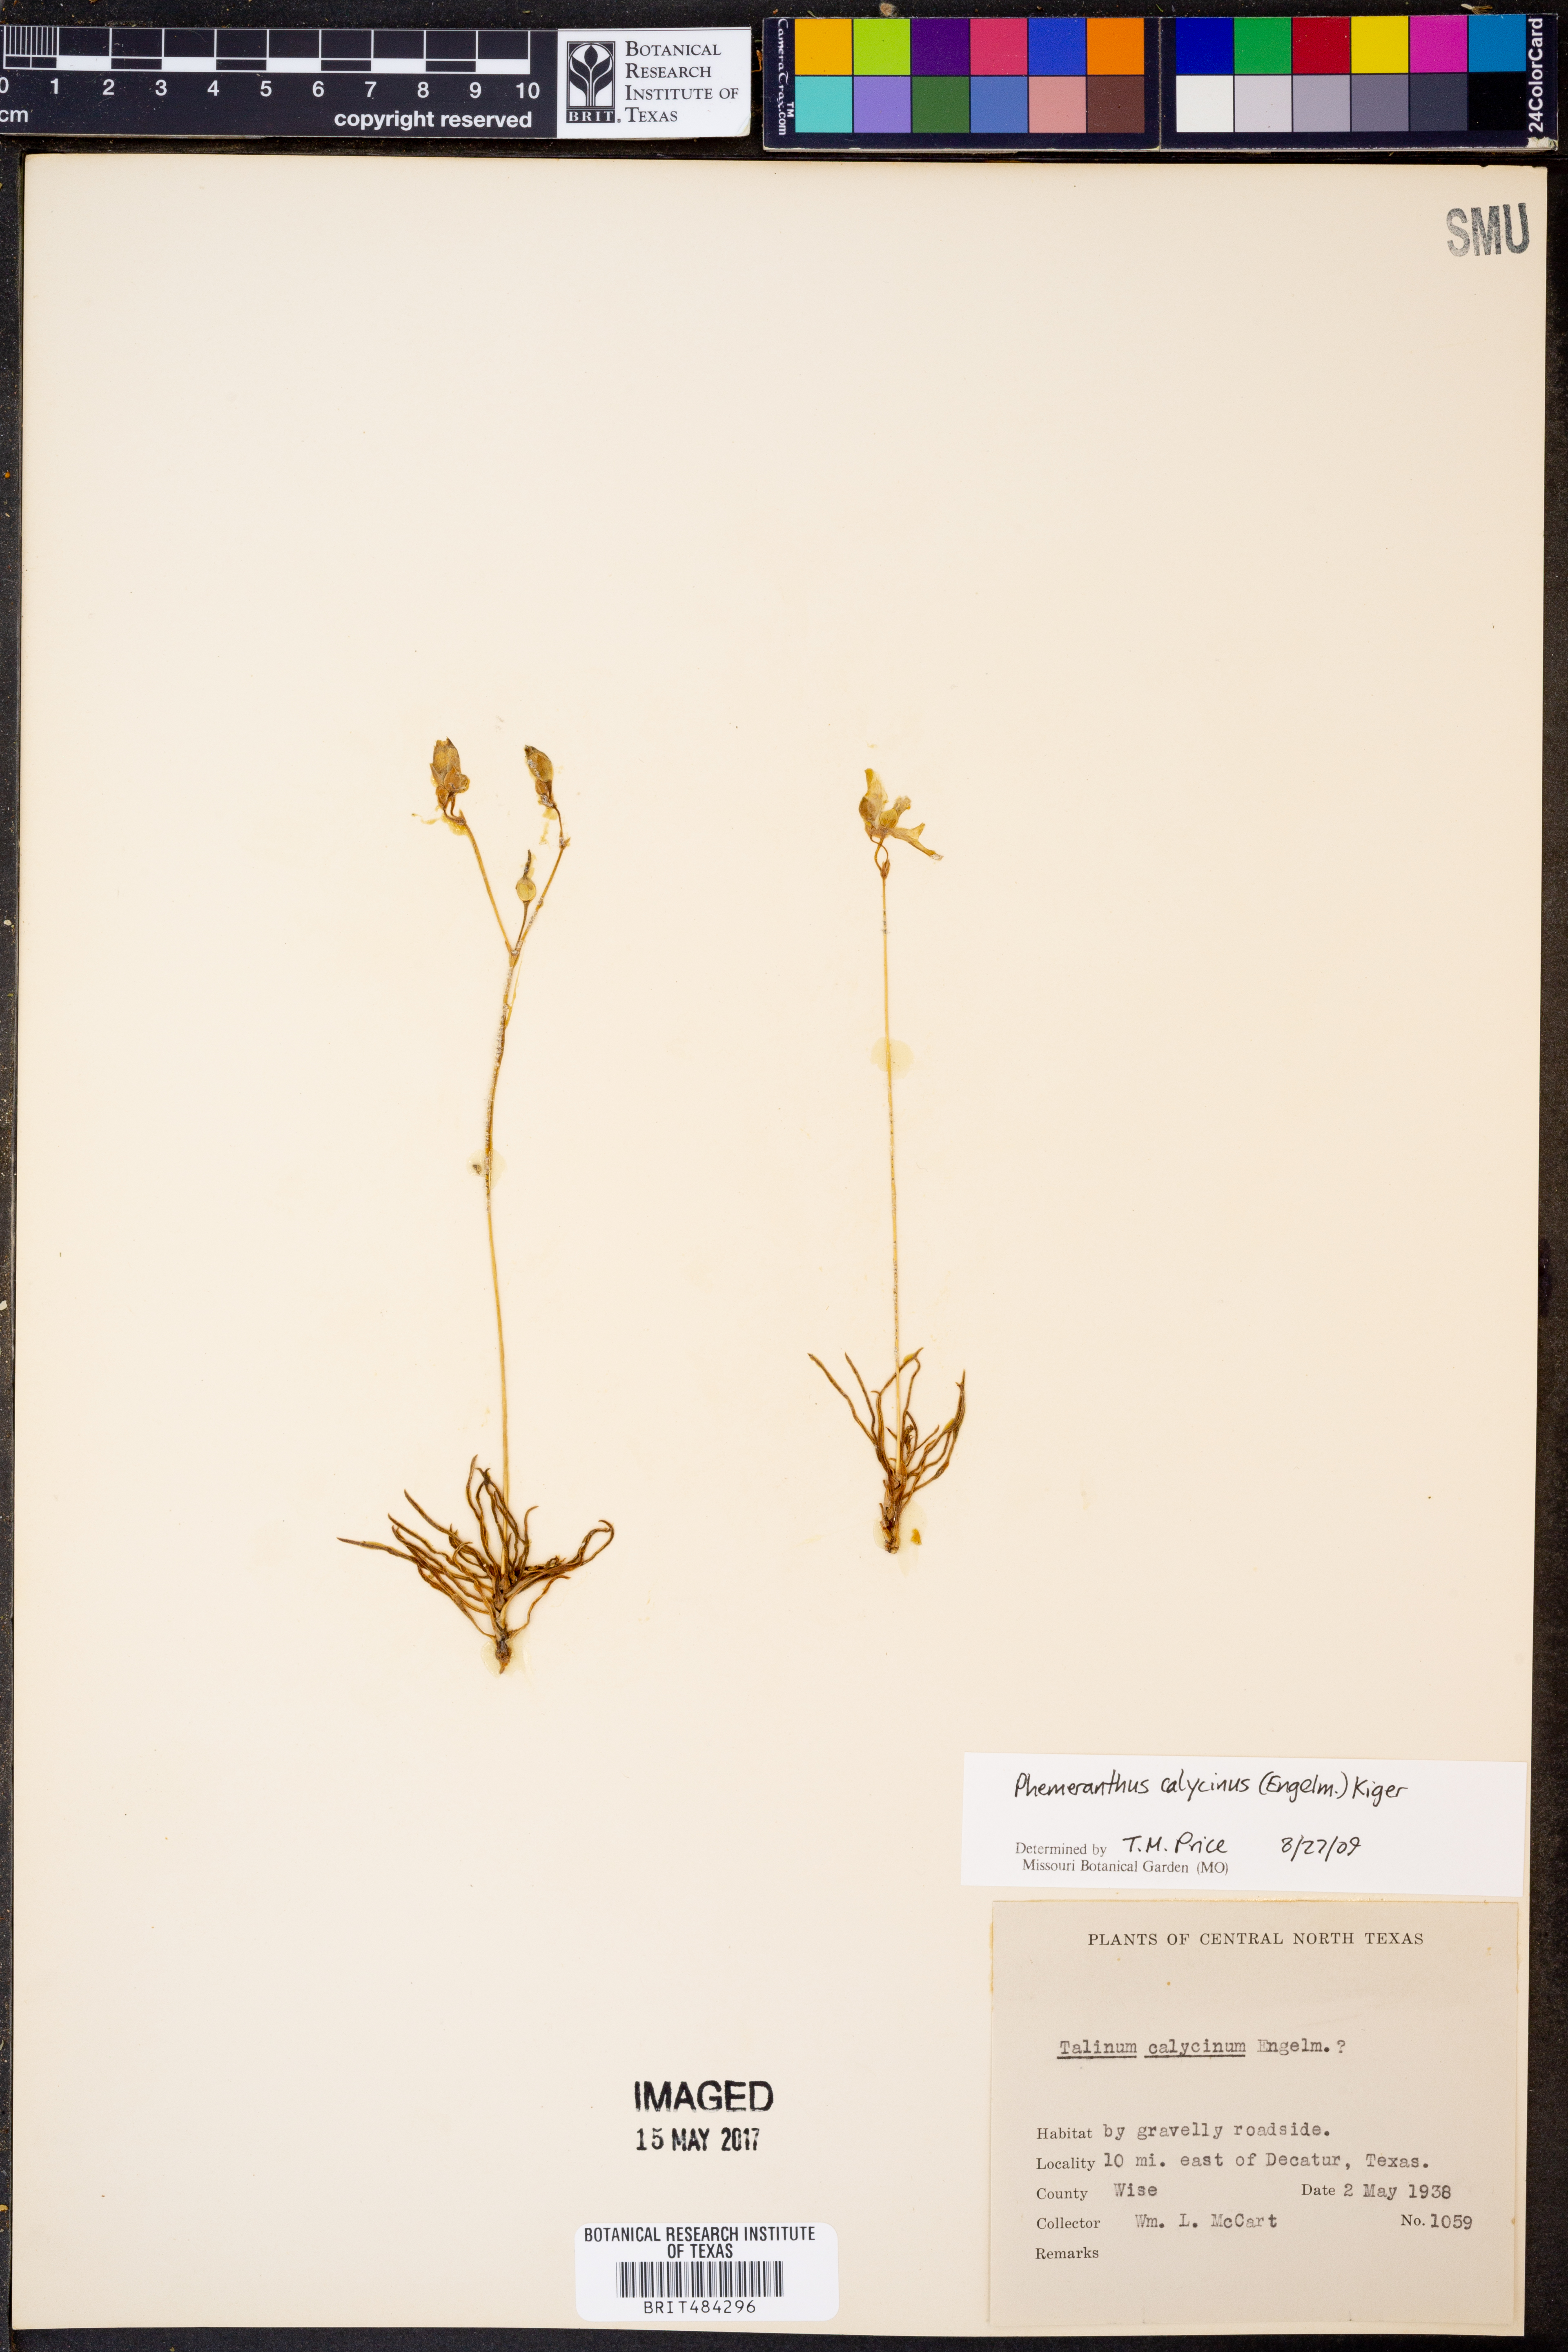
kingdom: Plantae
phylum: Tracheophyta
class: Magnoliopsida
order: Caryophyllales
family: Montiaceae
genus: Phemeranthus
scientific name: Phemeranthus calycinus
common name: Largeflower fameflower
